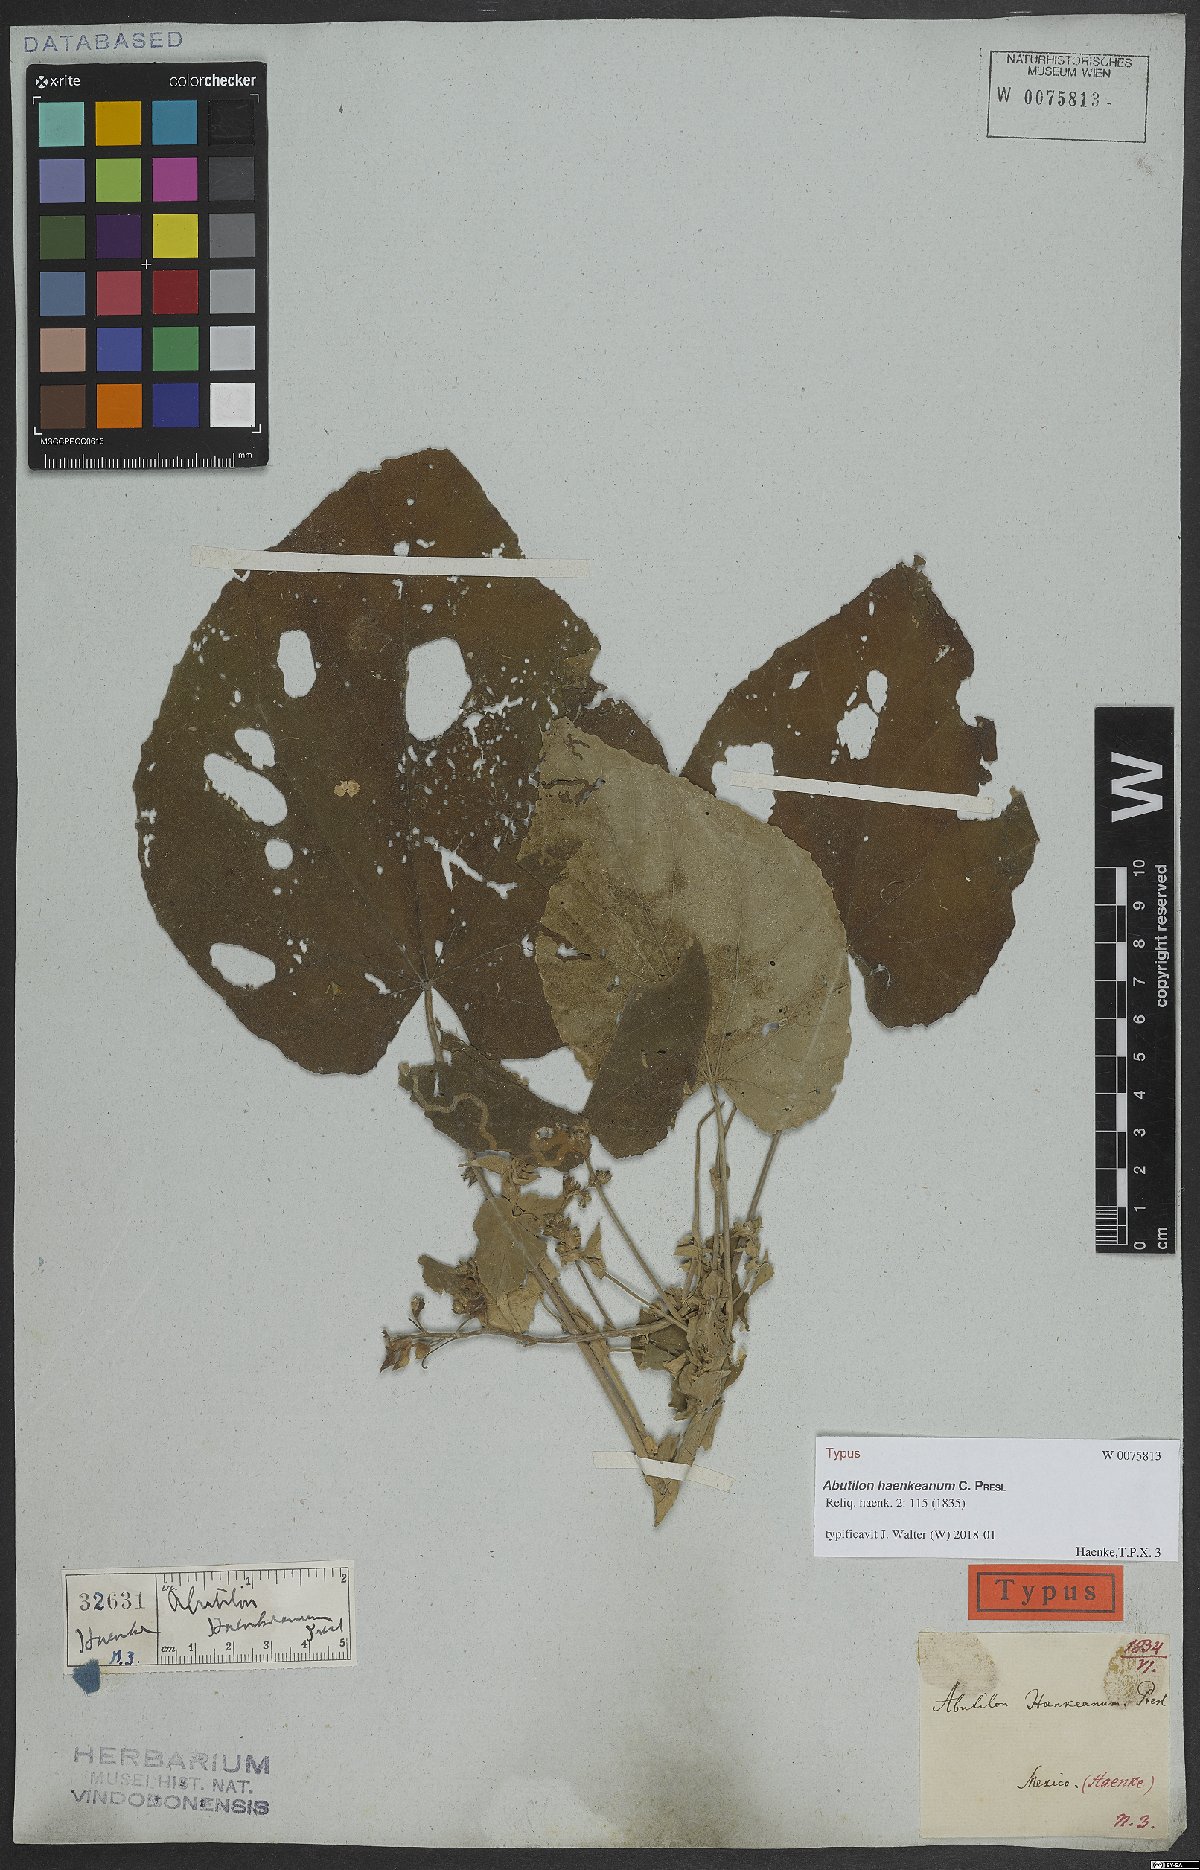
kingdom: Plantae
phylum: Tracheophyta
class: Magnoliopsida
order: Malvales
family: Malvaceae
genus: Abutilon
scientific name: Abutilon haenkeanum
